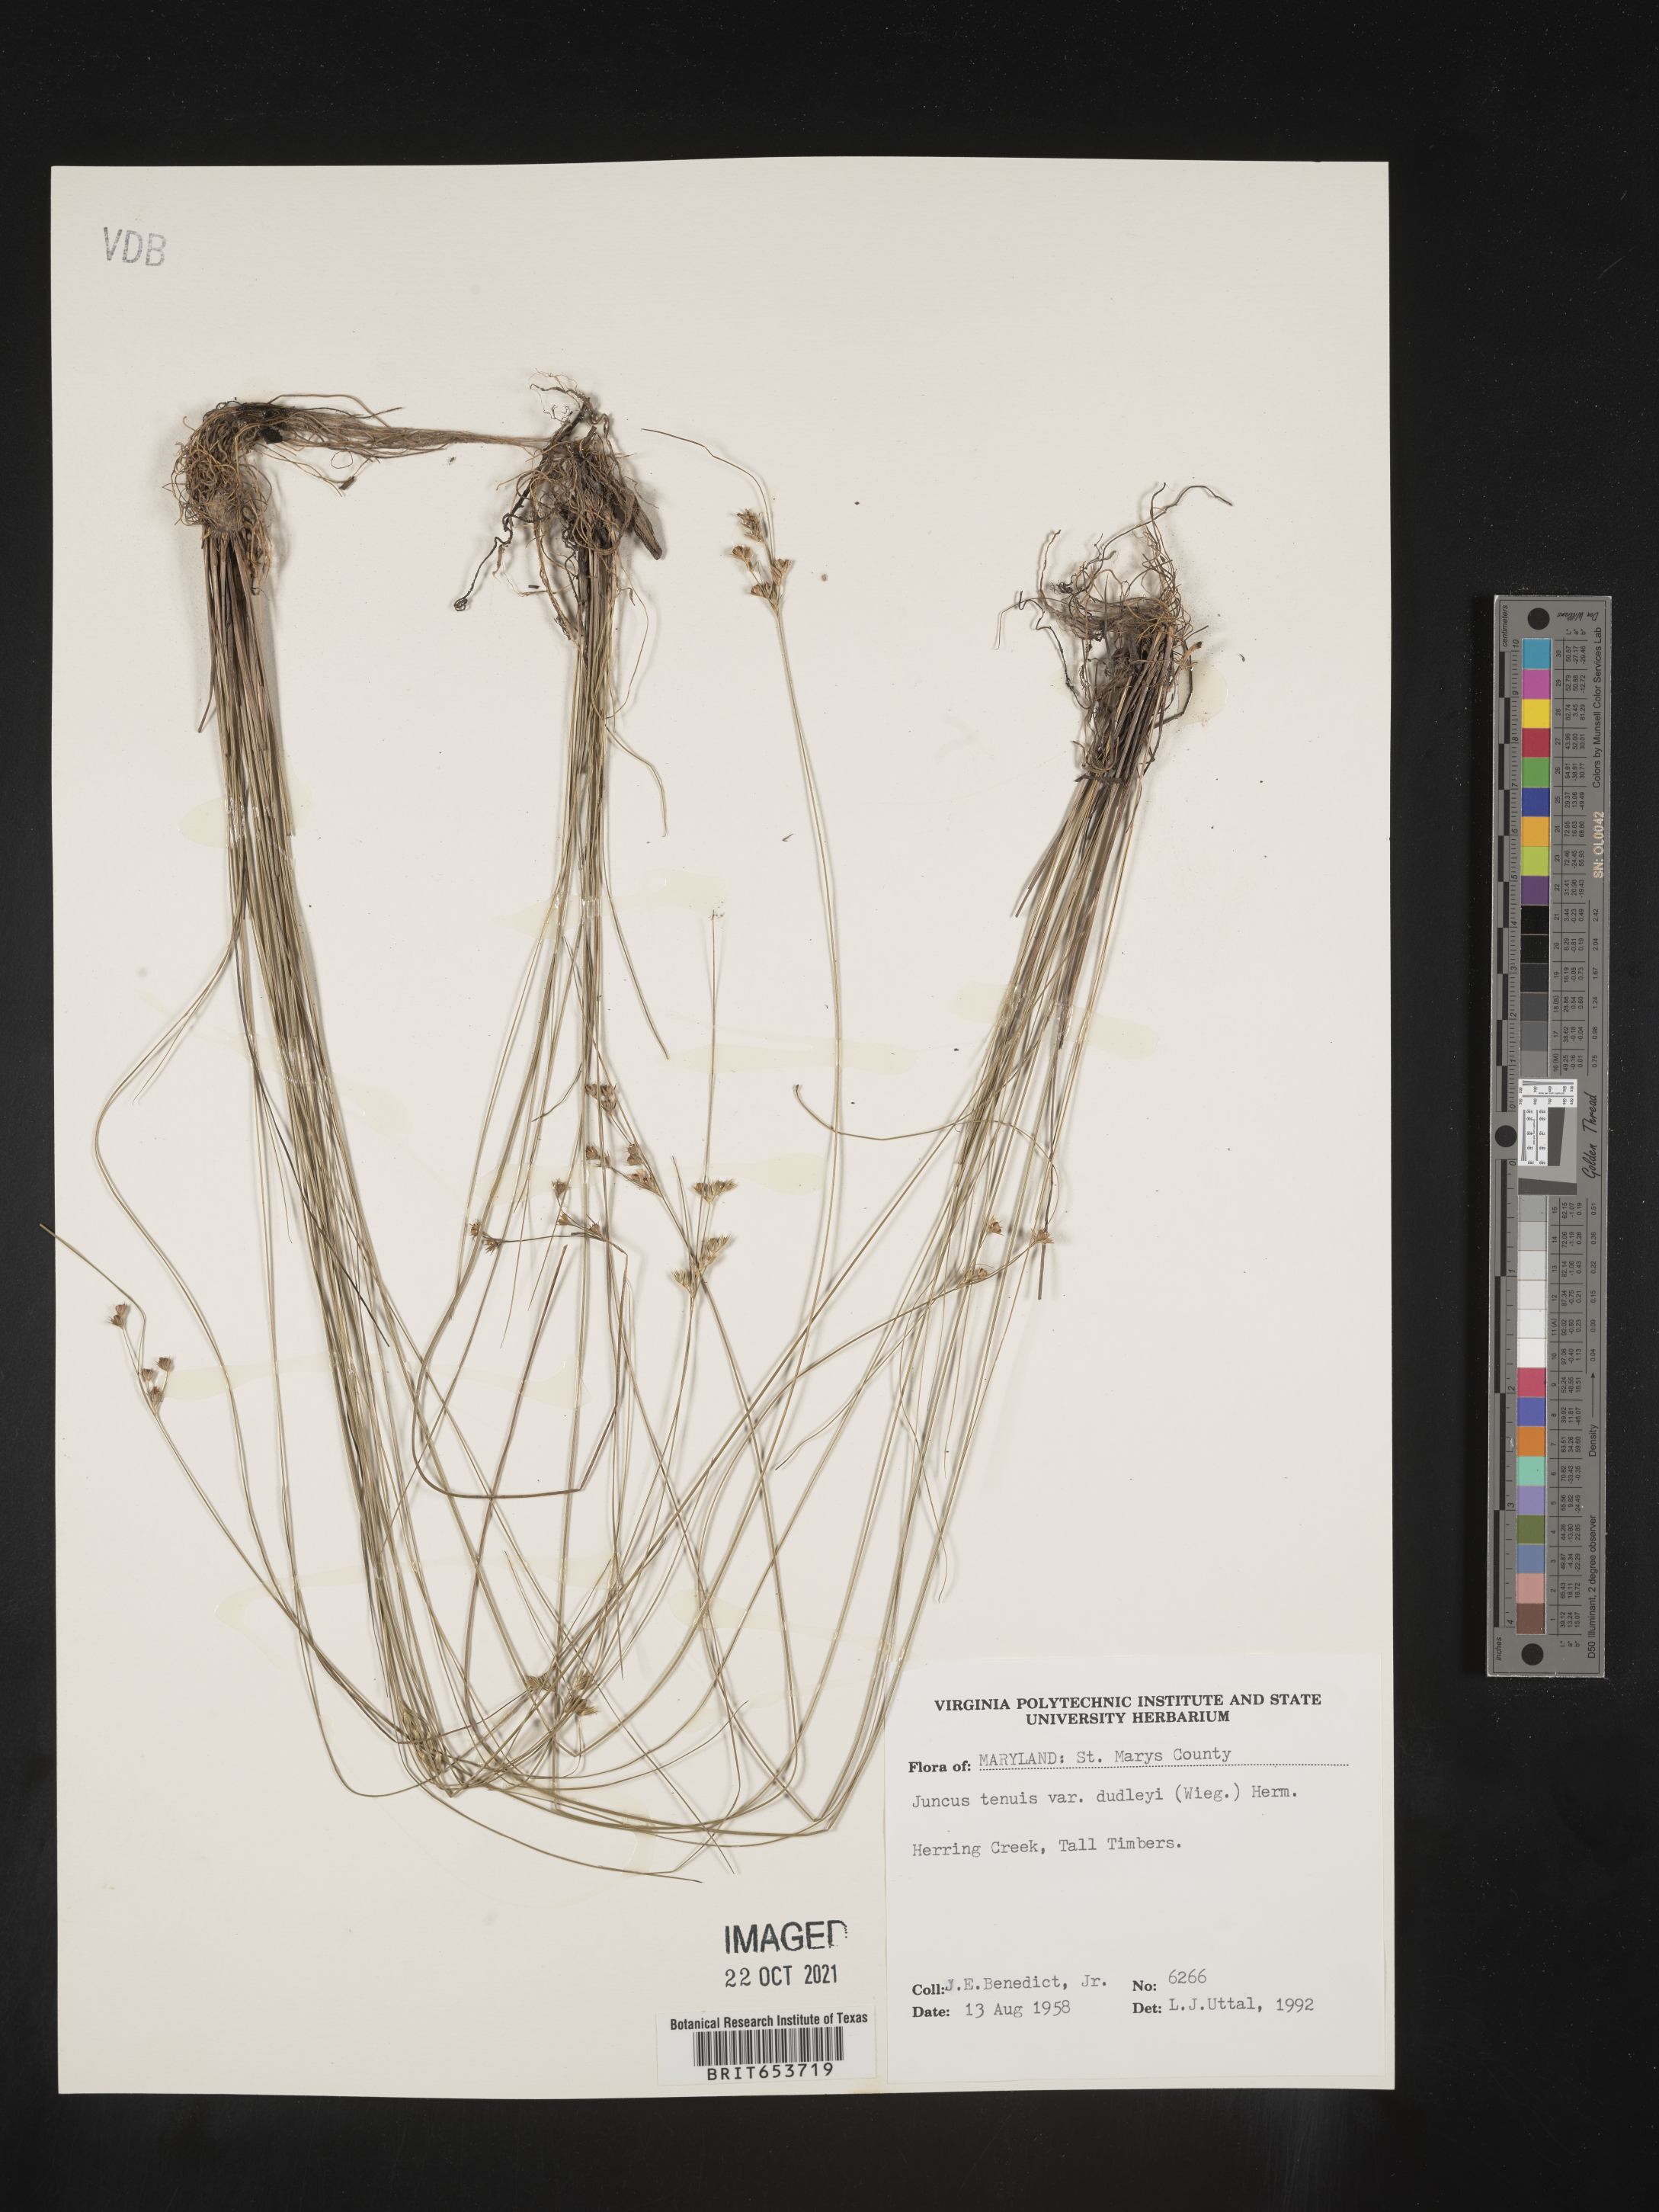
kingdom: Plantae
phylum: Tracheophyta
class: Liliopsida
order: Poales
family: Juncaceae
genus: Juncus
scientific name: Juncus tenuis
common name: Slender rush
